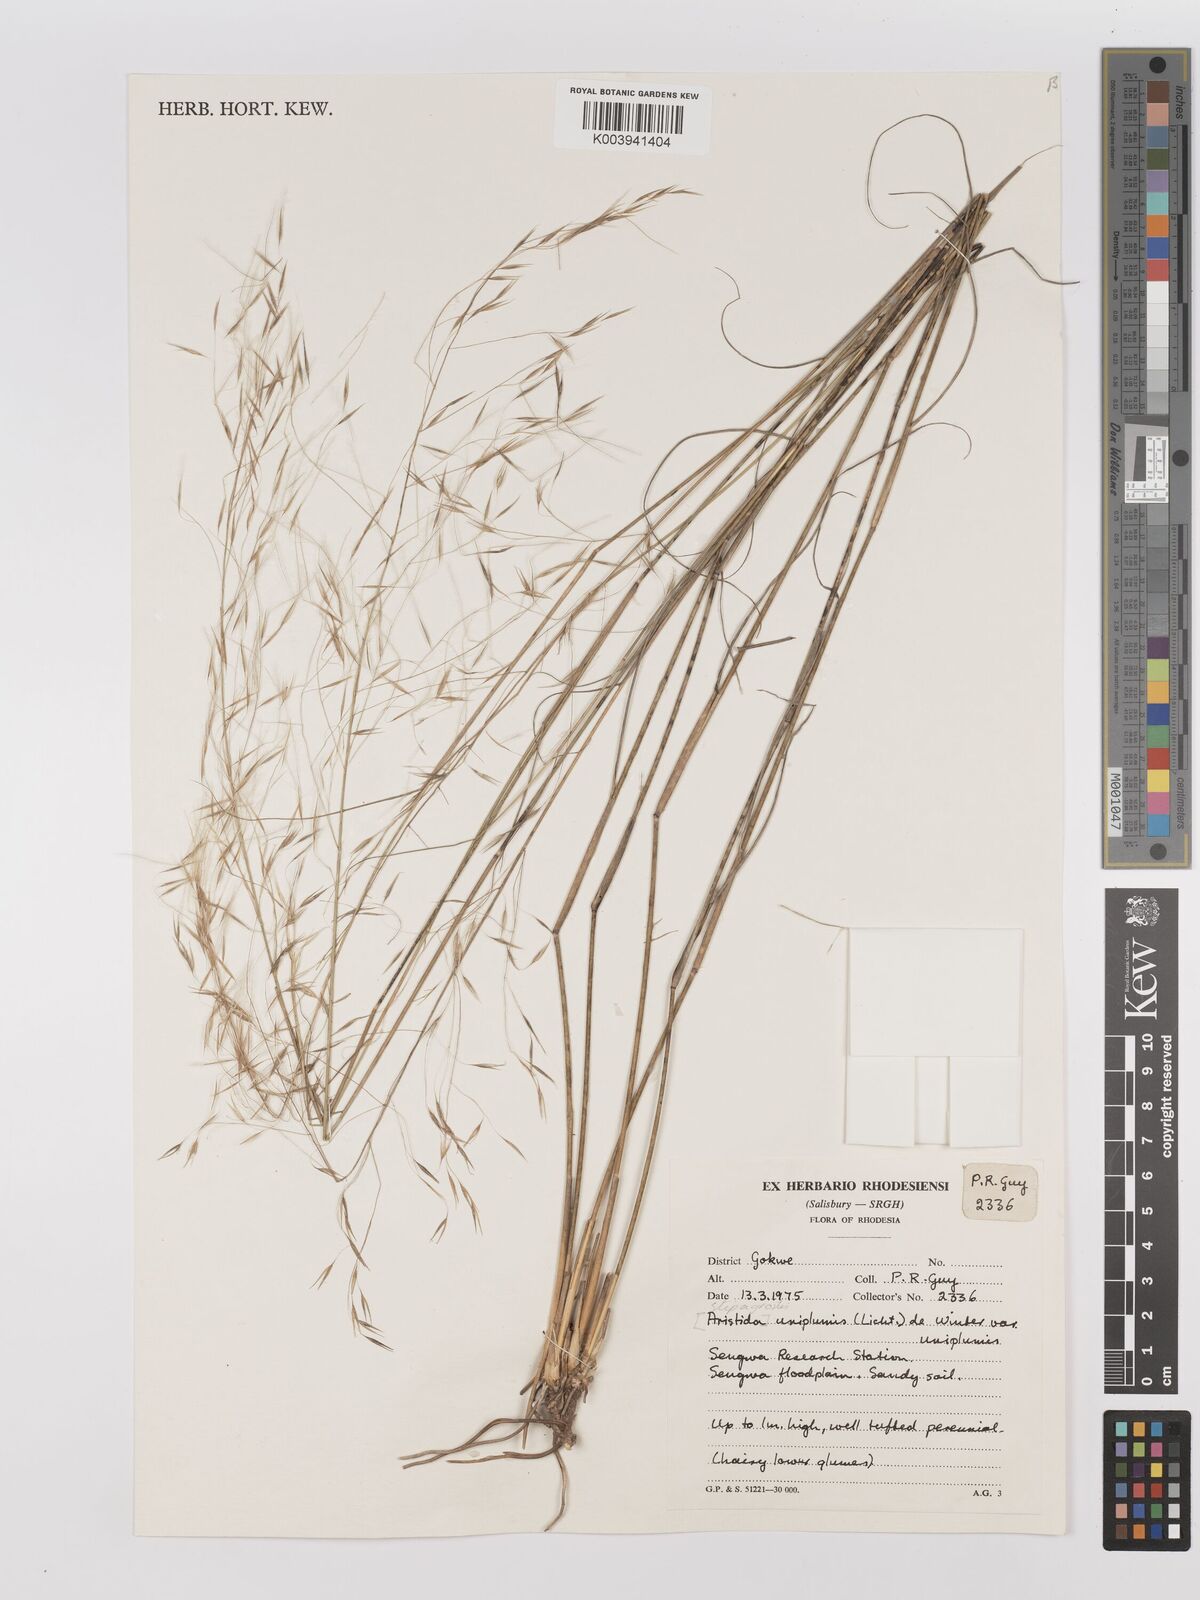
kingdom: Plantae
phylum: Tracheophyta
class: Liliopsida
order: Poales
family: Poaceae
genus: Stipagrostis
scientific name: Stipagrostis uniplumis
